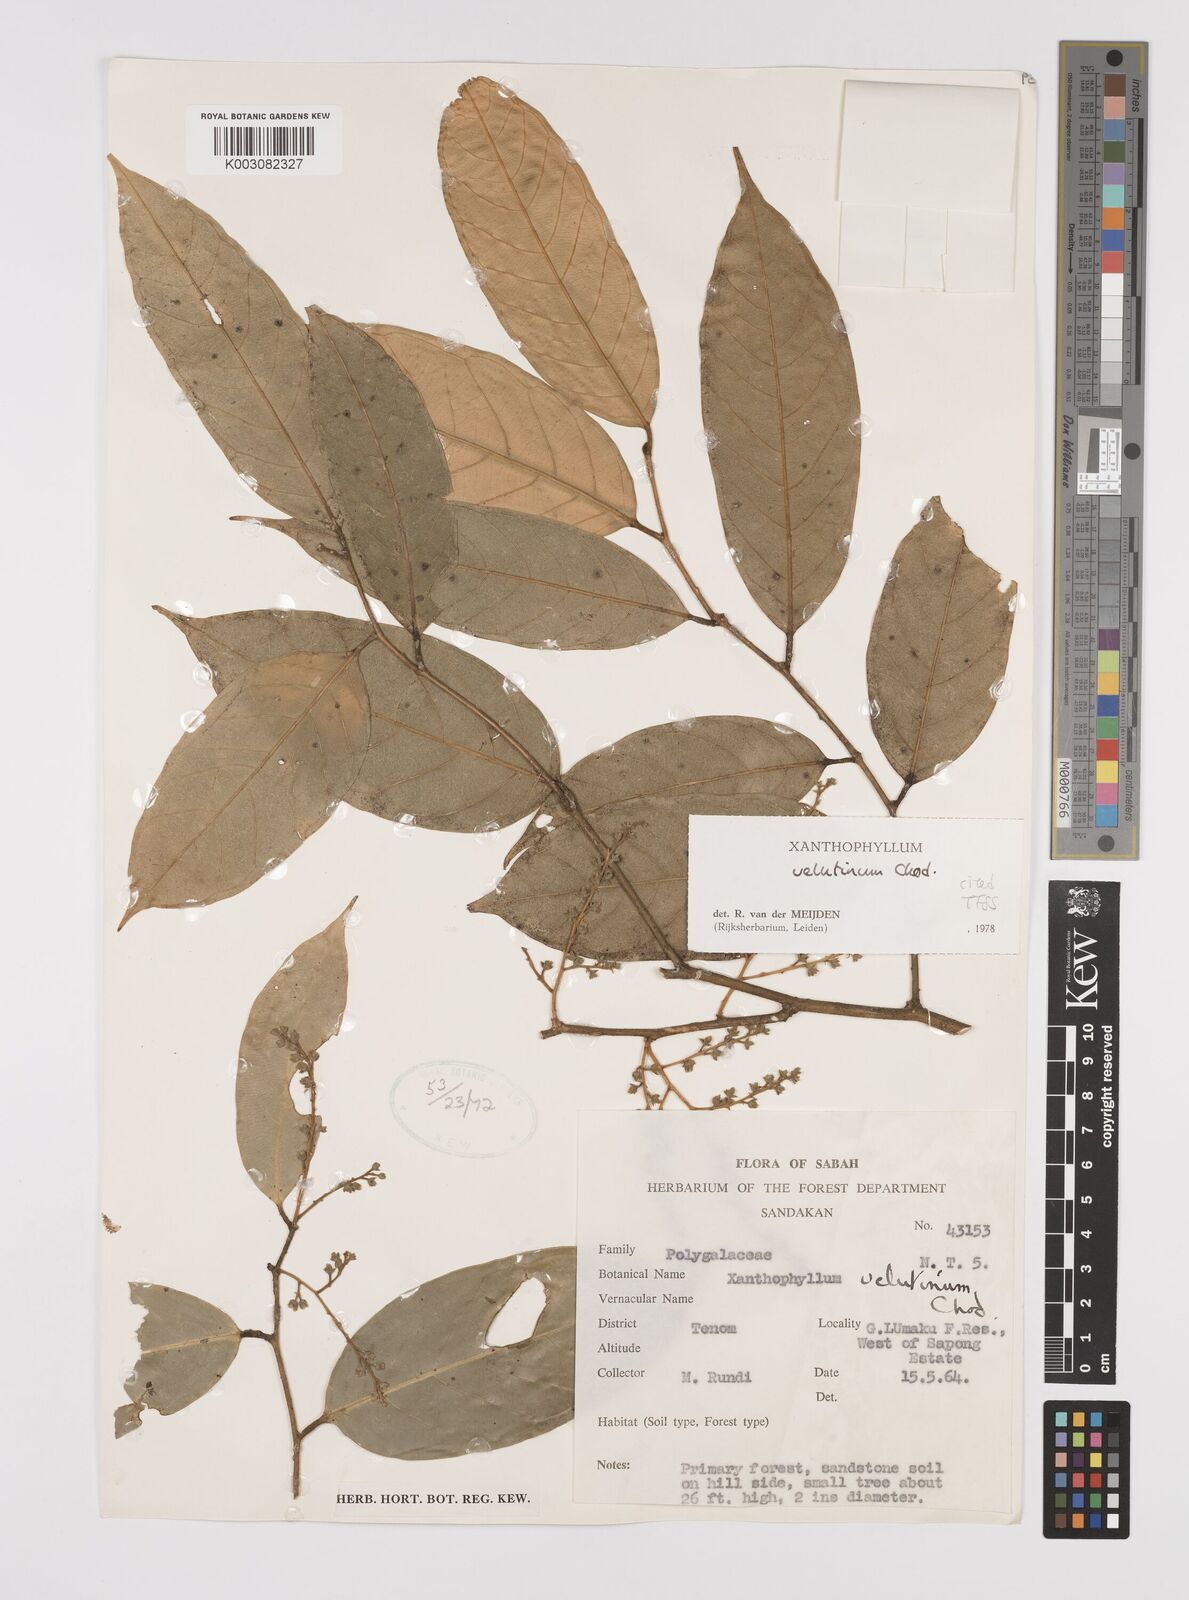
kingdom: Plantae
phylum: Tracheophyta
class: Magnoliopsida
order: Fabales
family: Polygalaceae
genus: Xanthophyllum
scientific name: Xanthophyllum velutinum
